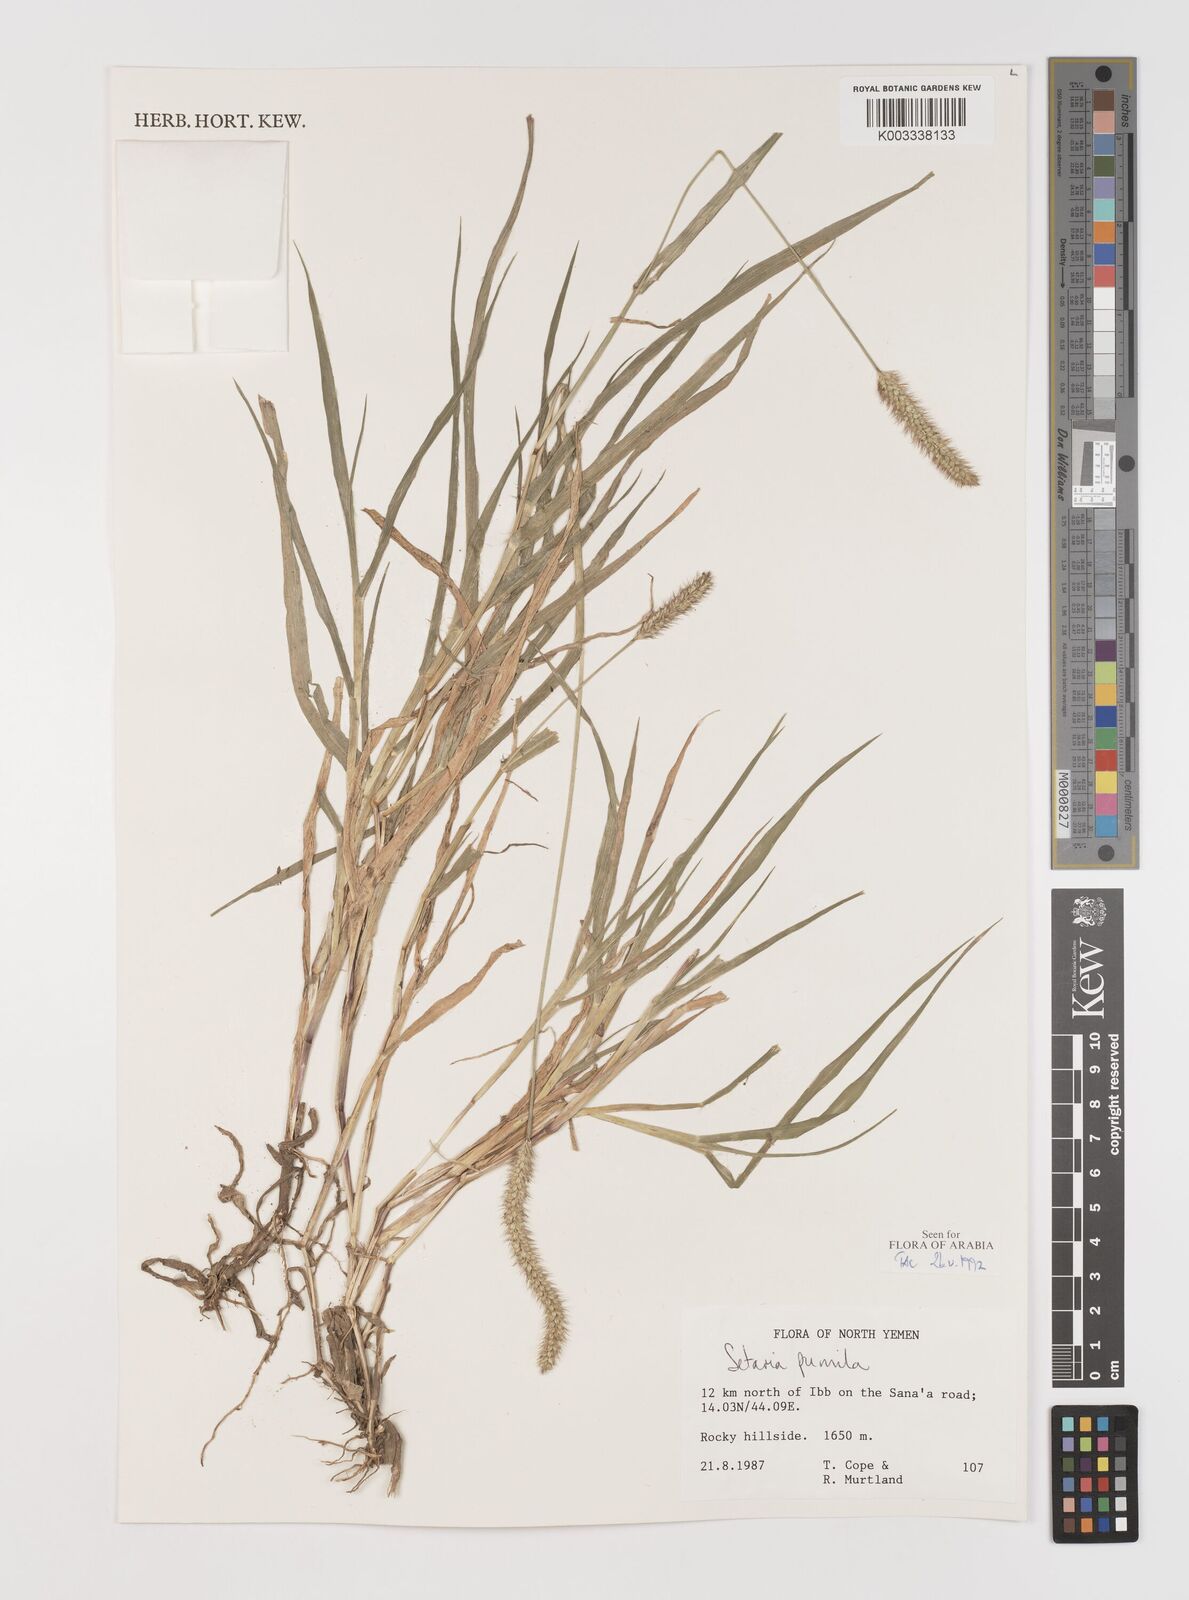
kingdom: Plantae
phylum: Tracheophyta
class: Liliopsida
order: Poales
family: Poaceae
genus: Setaria
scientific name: Setaria pumila
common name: Yellow bristle-grass
